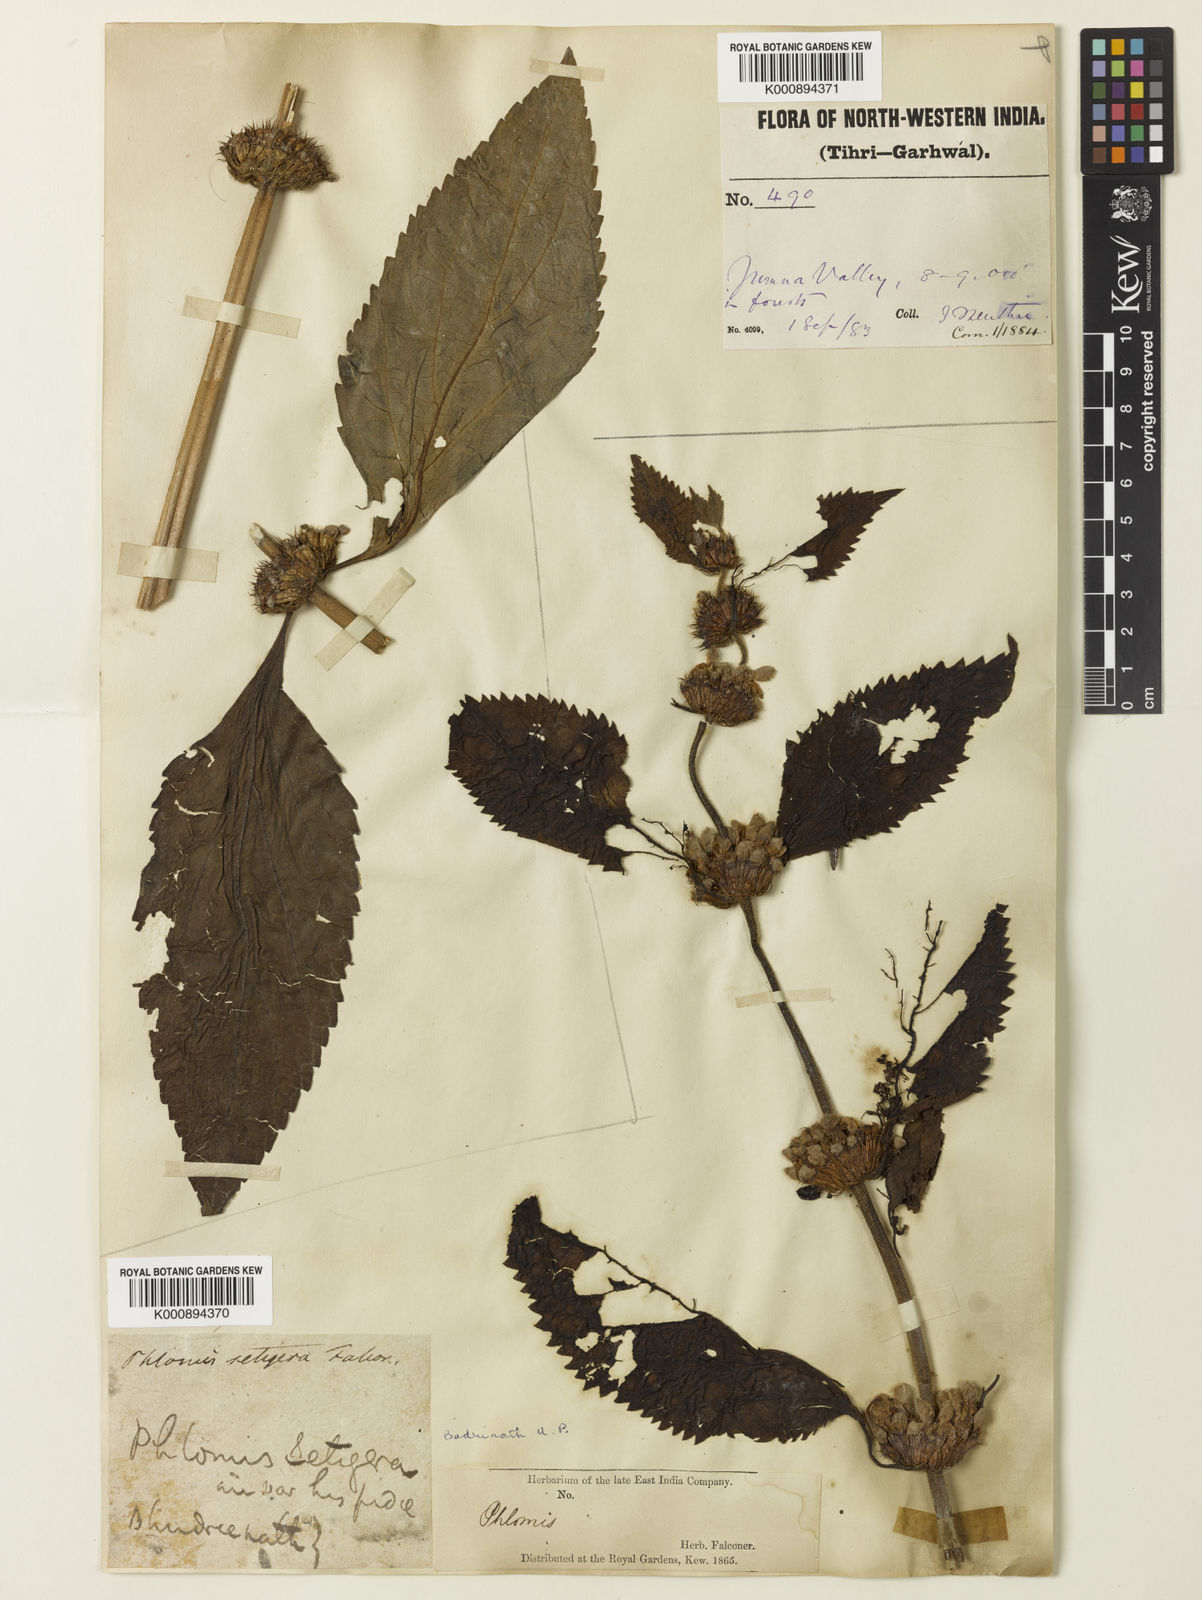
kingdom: Plantae
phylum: Tracheophyta
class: Magnoliopsida
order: Lamiales
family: Lamiaceae
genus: Phlomoides
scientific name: Phlomoides macrophylla
